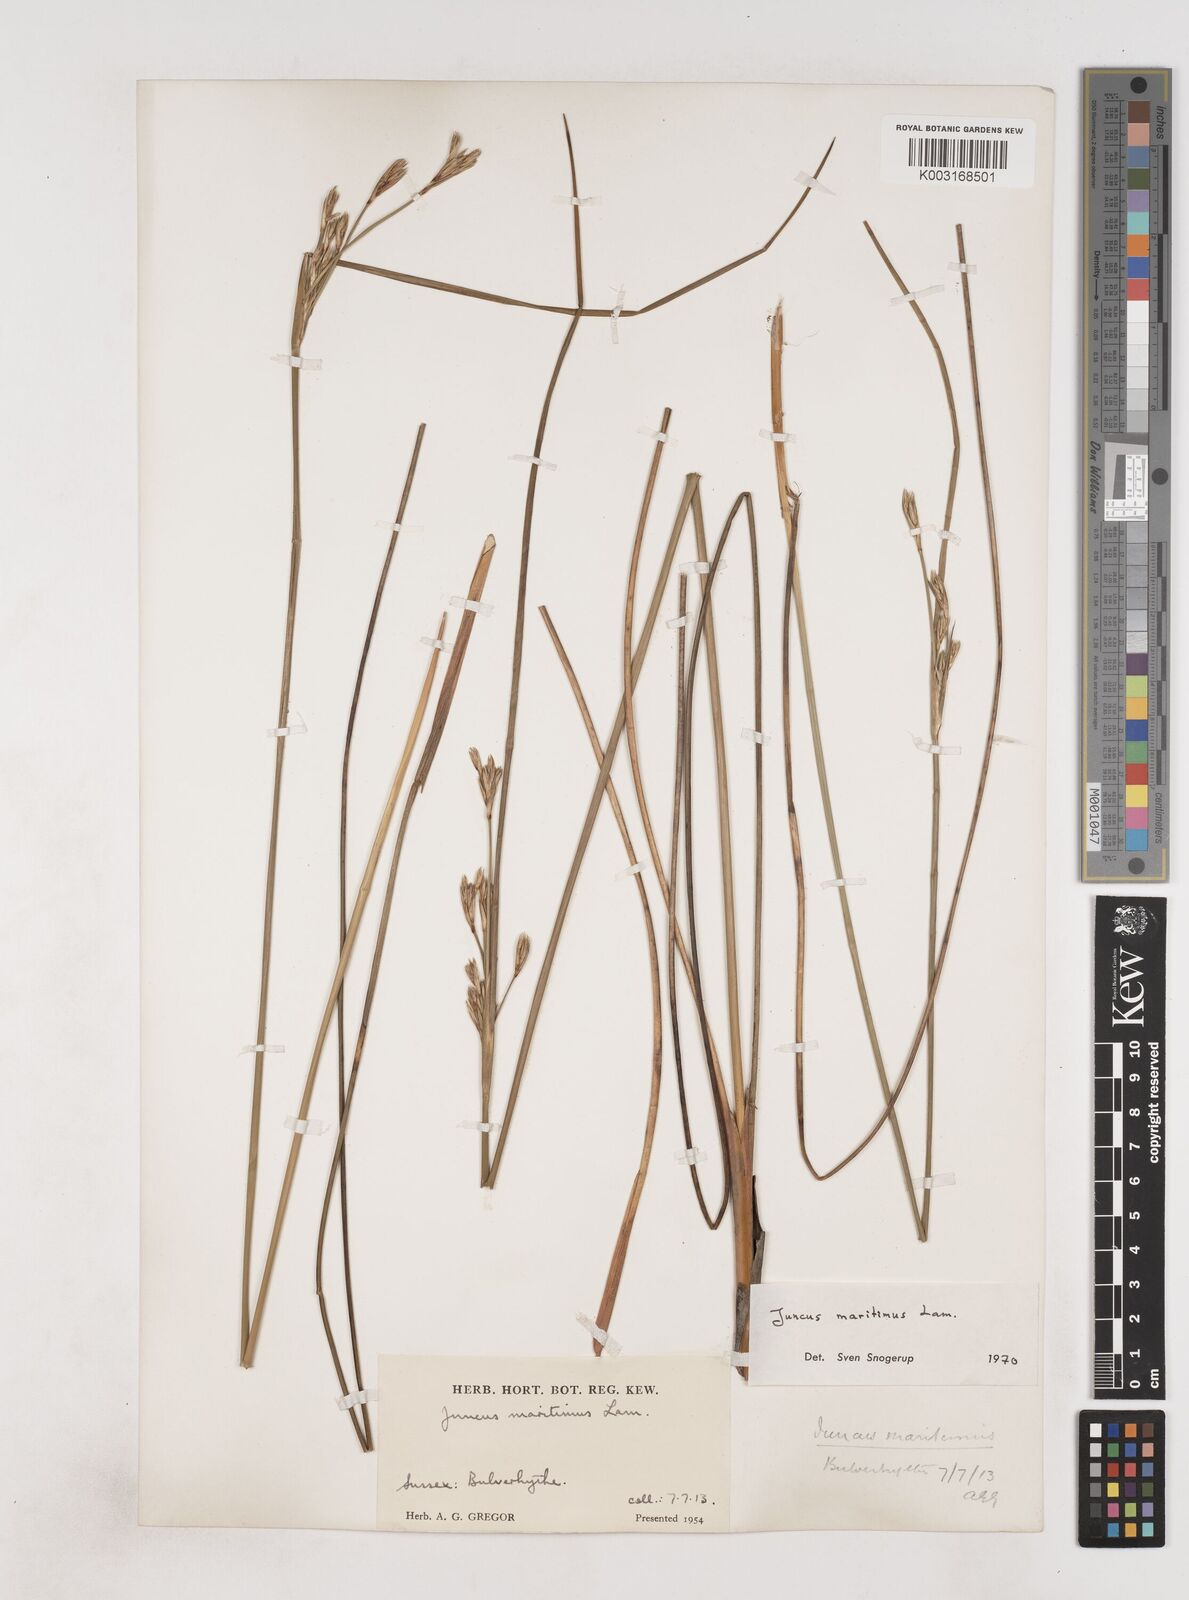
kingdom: Plantae
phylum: Tracheophyta
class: Liliopsida
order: Poales
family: Juncaceae
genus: Juncus
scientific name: Juncus maritimus
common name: Sea rush
